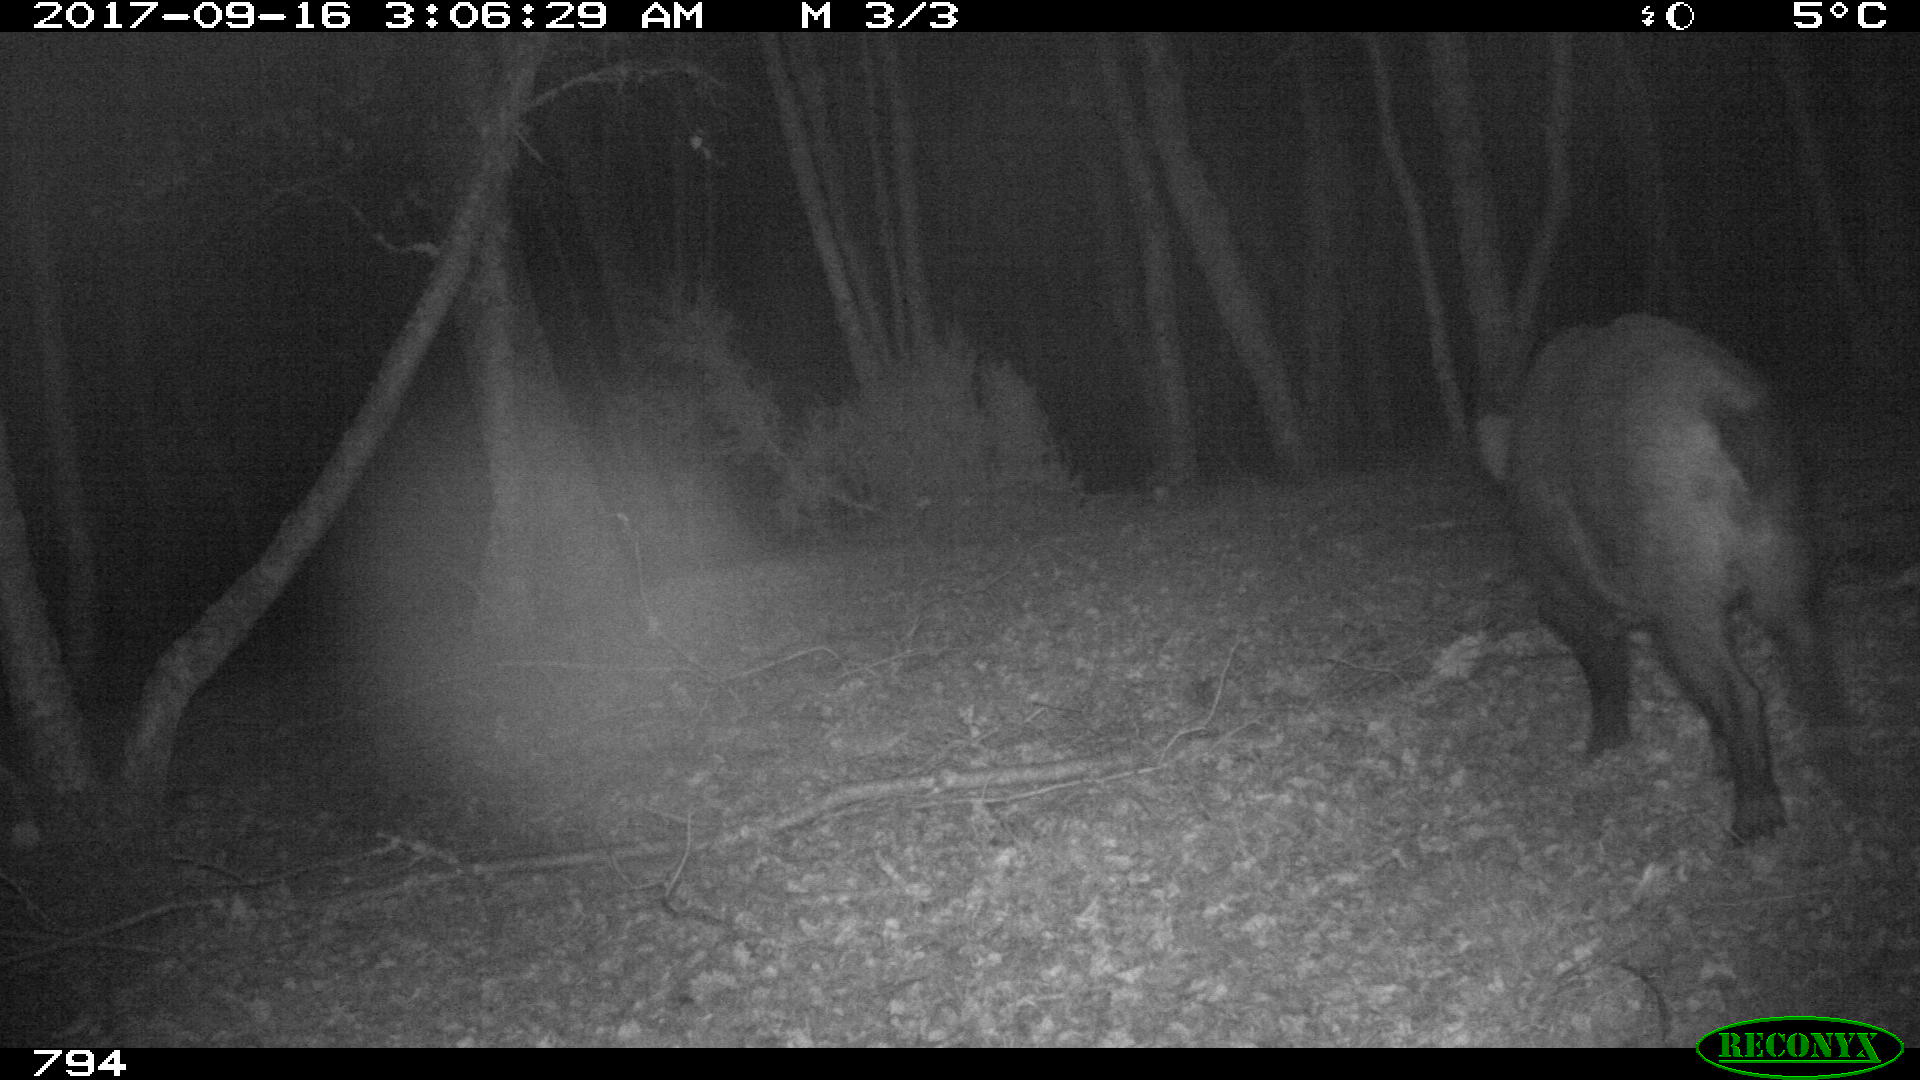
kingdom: Animalia
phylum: Chordata
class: Mammalia
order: Artiodactyla
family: Suidae
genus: Sus
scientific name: Sus scrofa
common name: Wild boar
